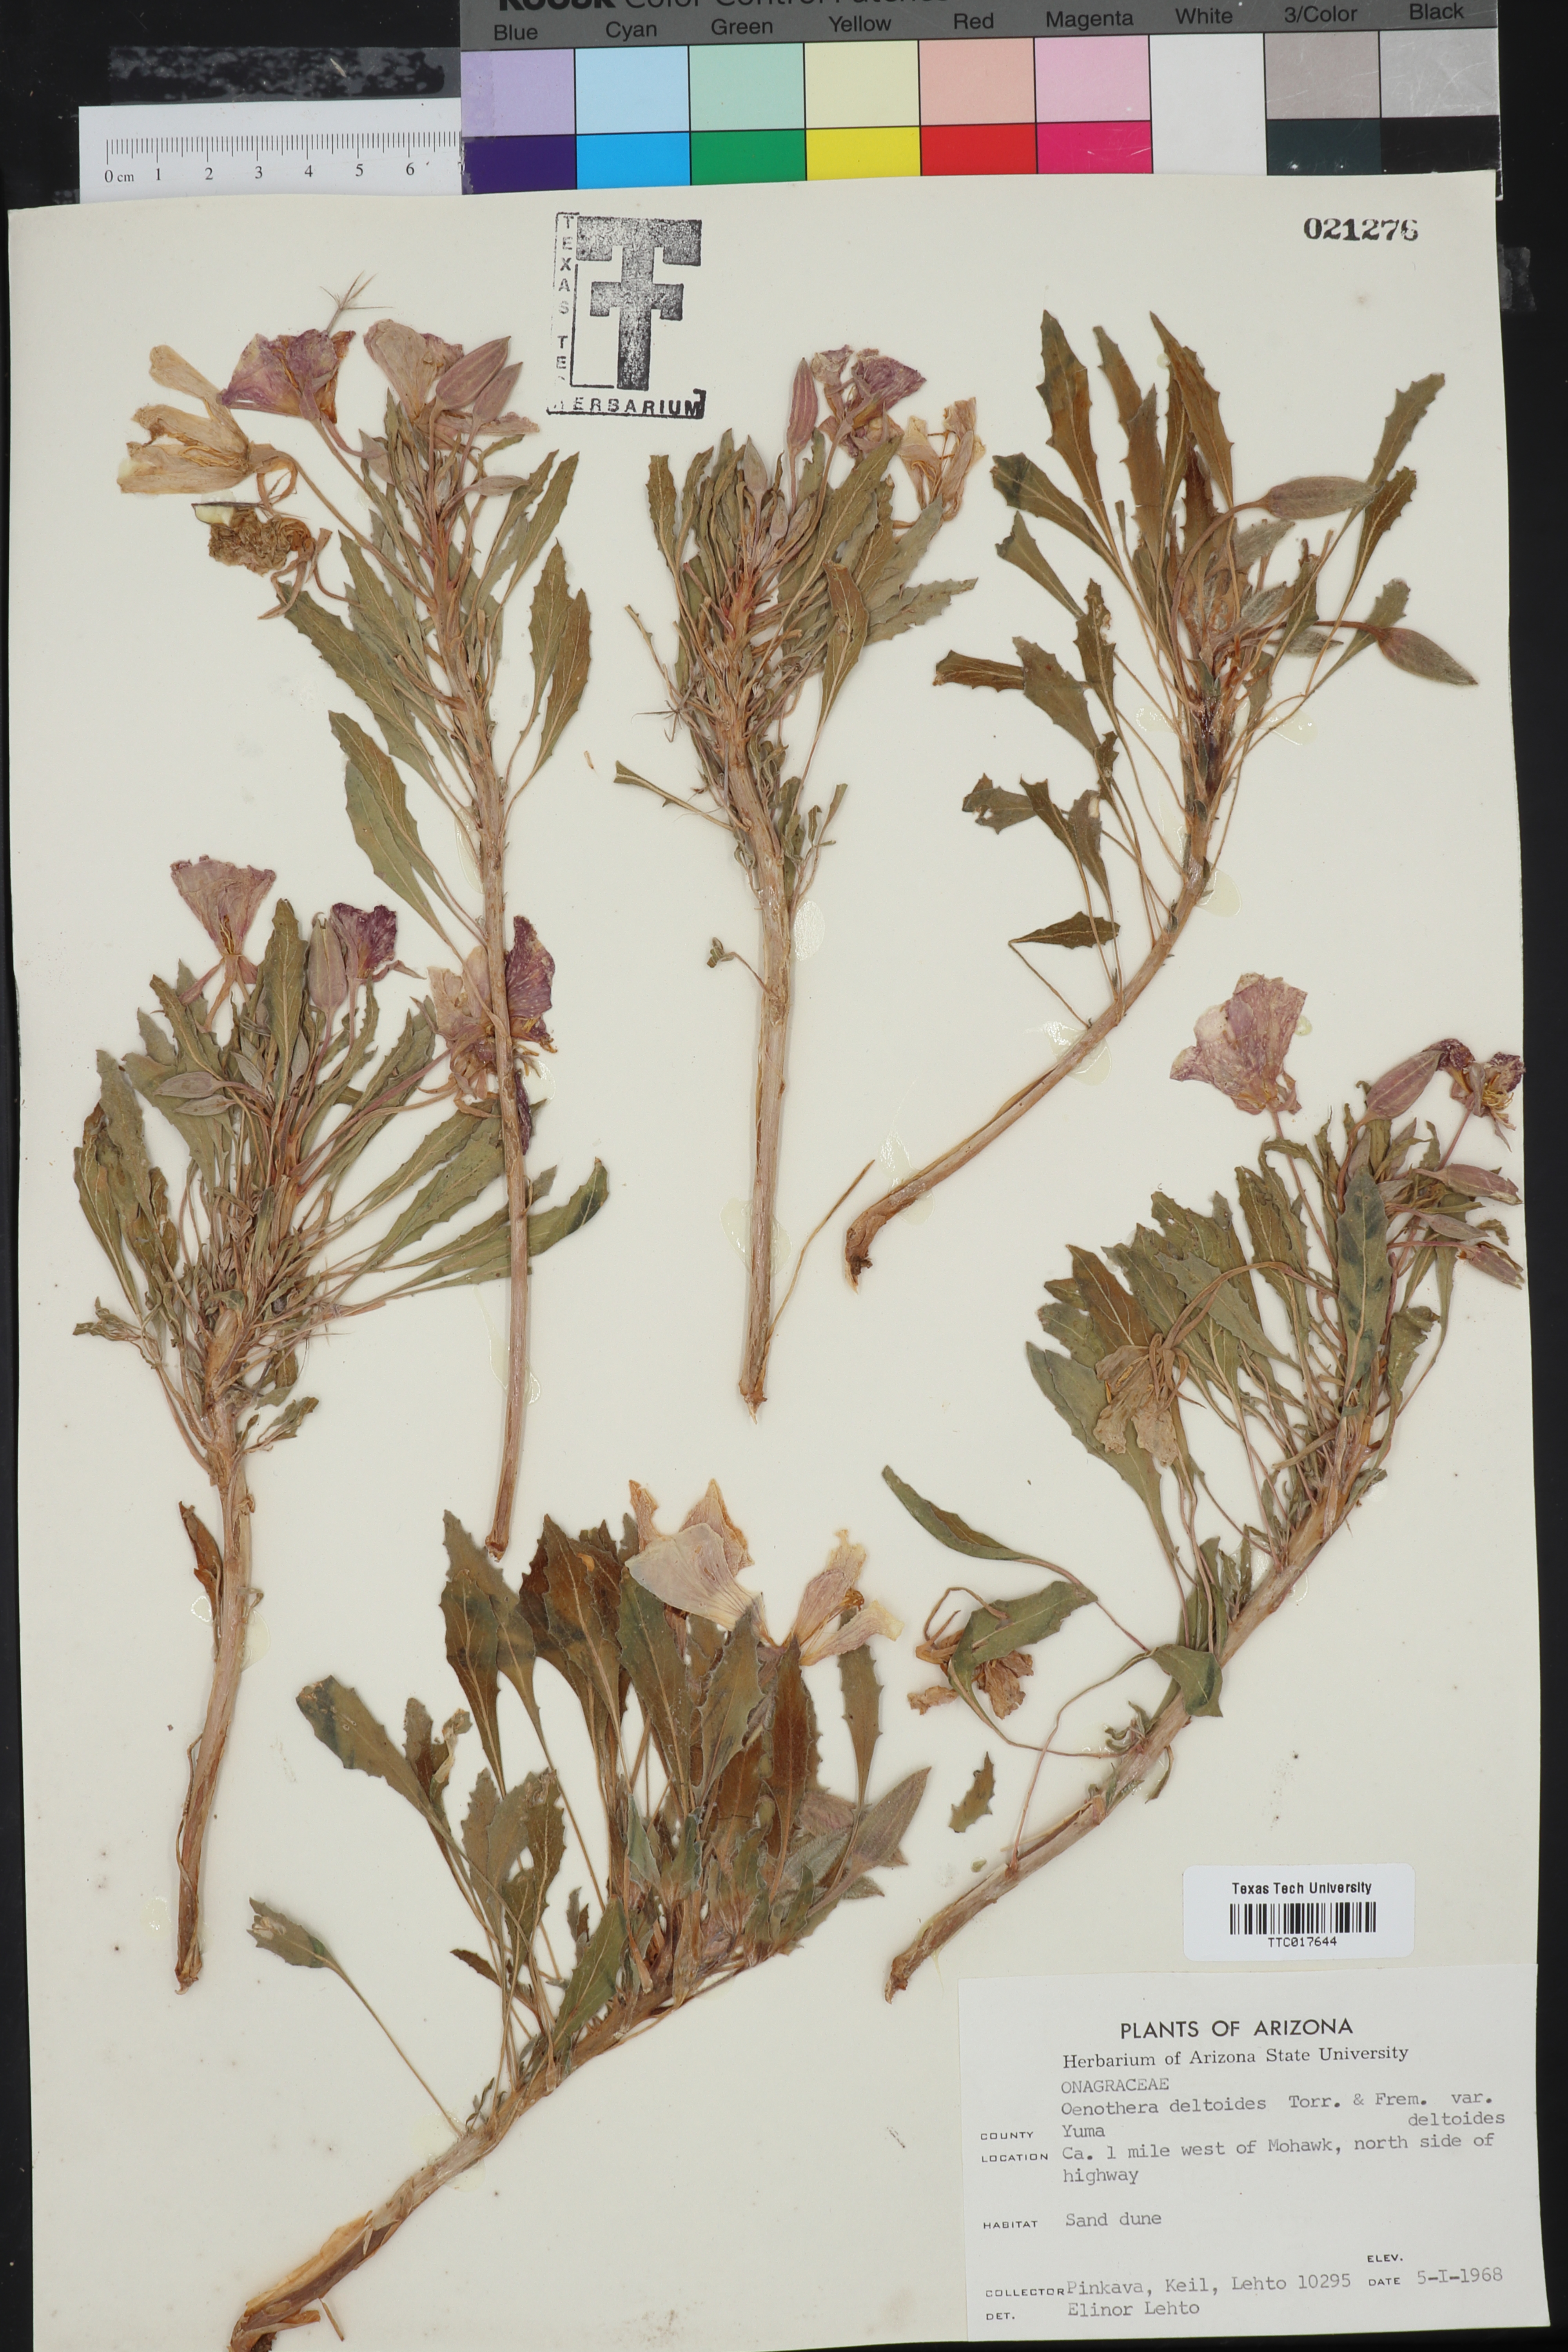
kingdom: Plantae
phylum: Tracheophyta
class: Magnoliopsida
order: Myrtales
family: Onagraceae
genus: Oenothera
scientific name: Oenothera deltoides
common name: Basket evening-primrose
